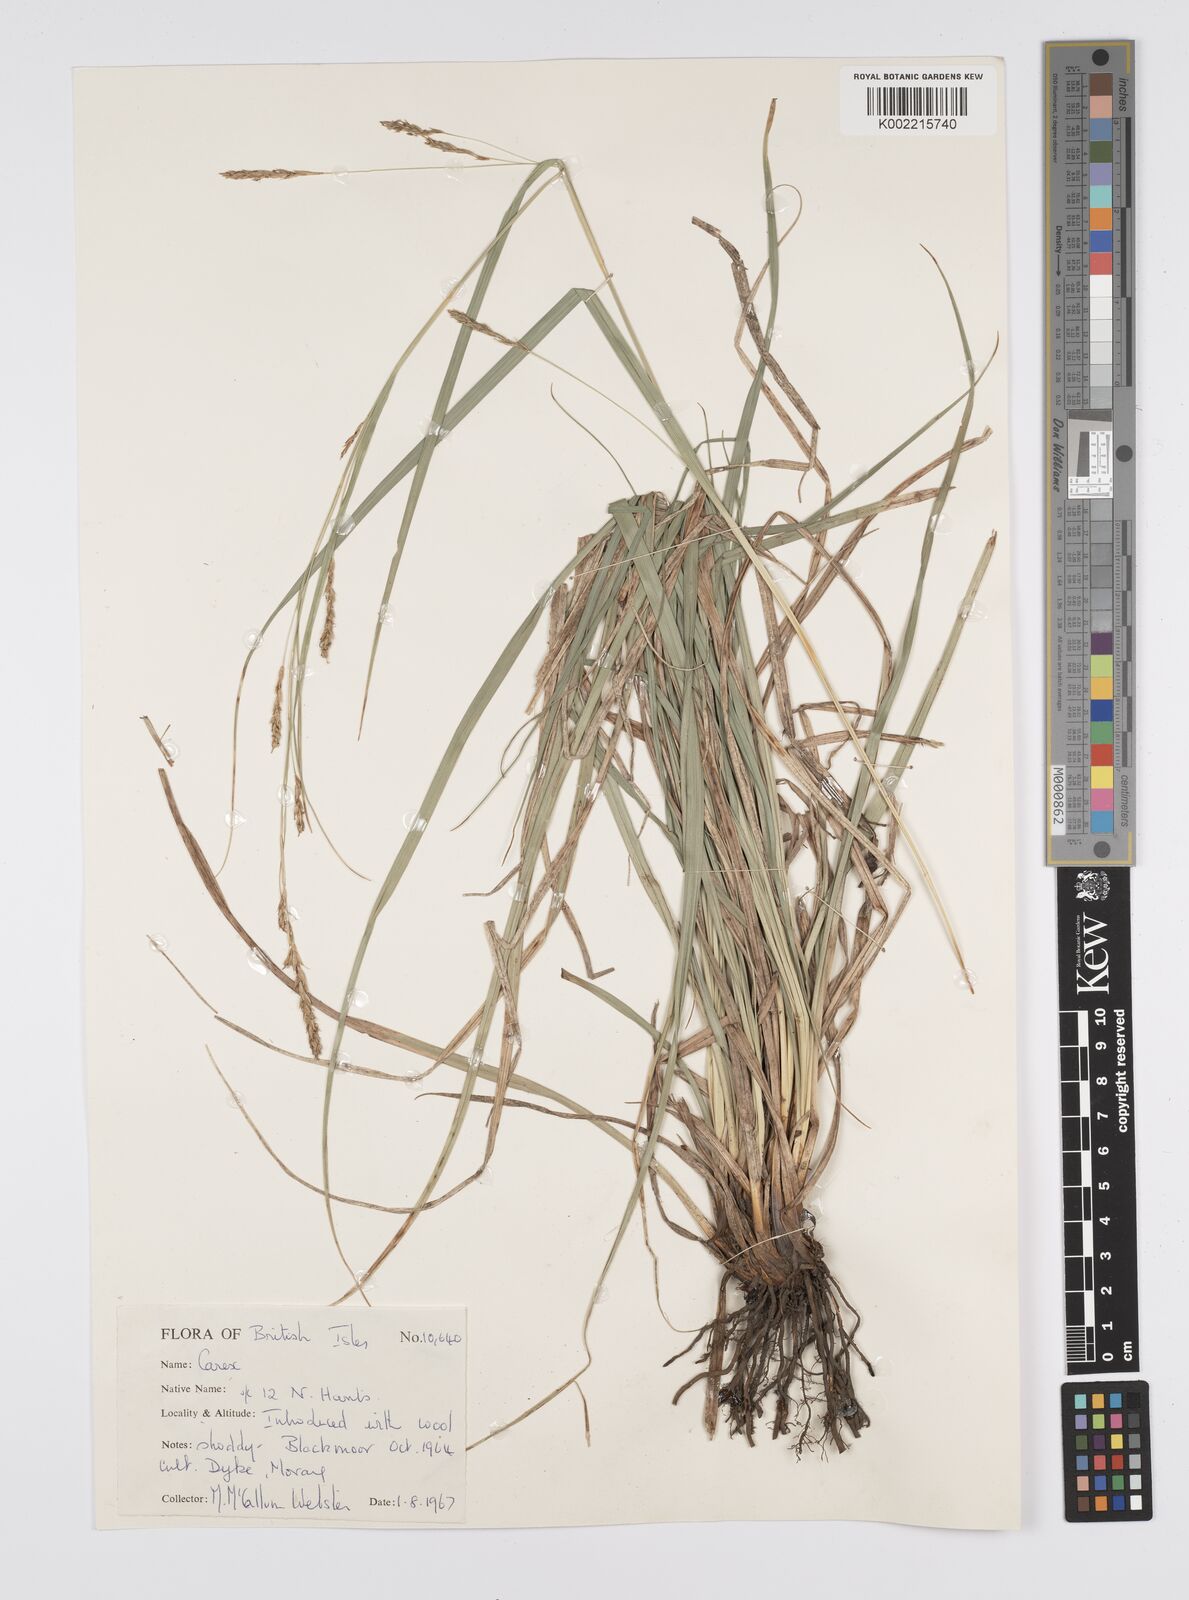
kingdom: Plantae
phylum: Tracheophyta
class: Liliopsida
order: Poales
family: Cyperaceae
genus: Carex
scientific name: Carex
